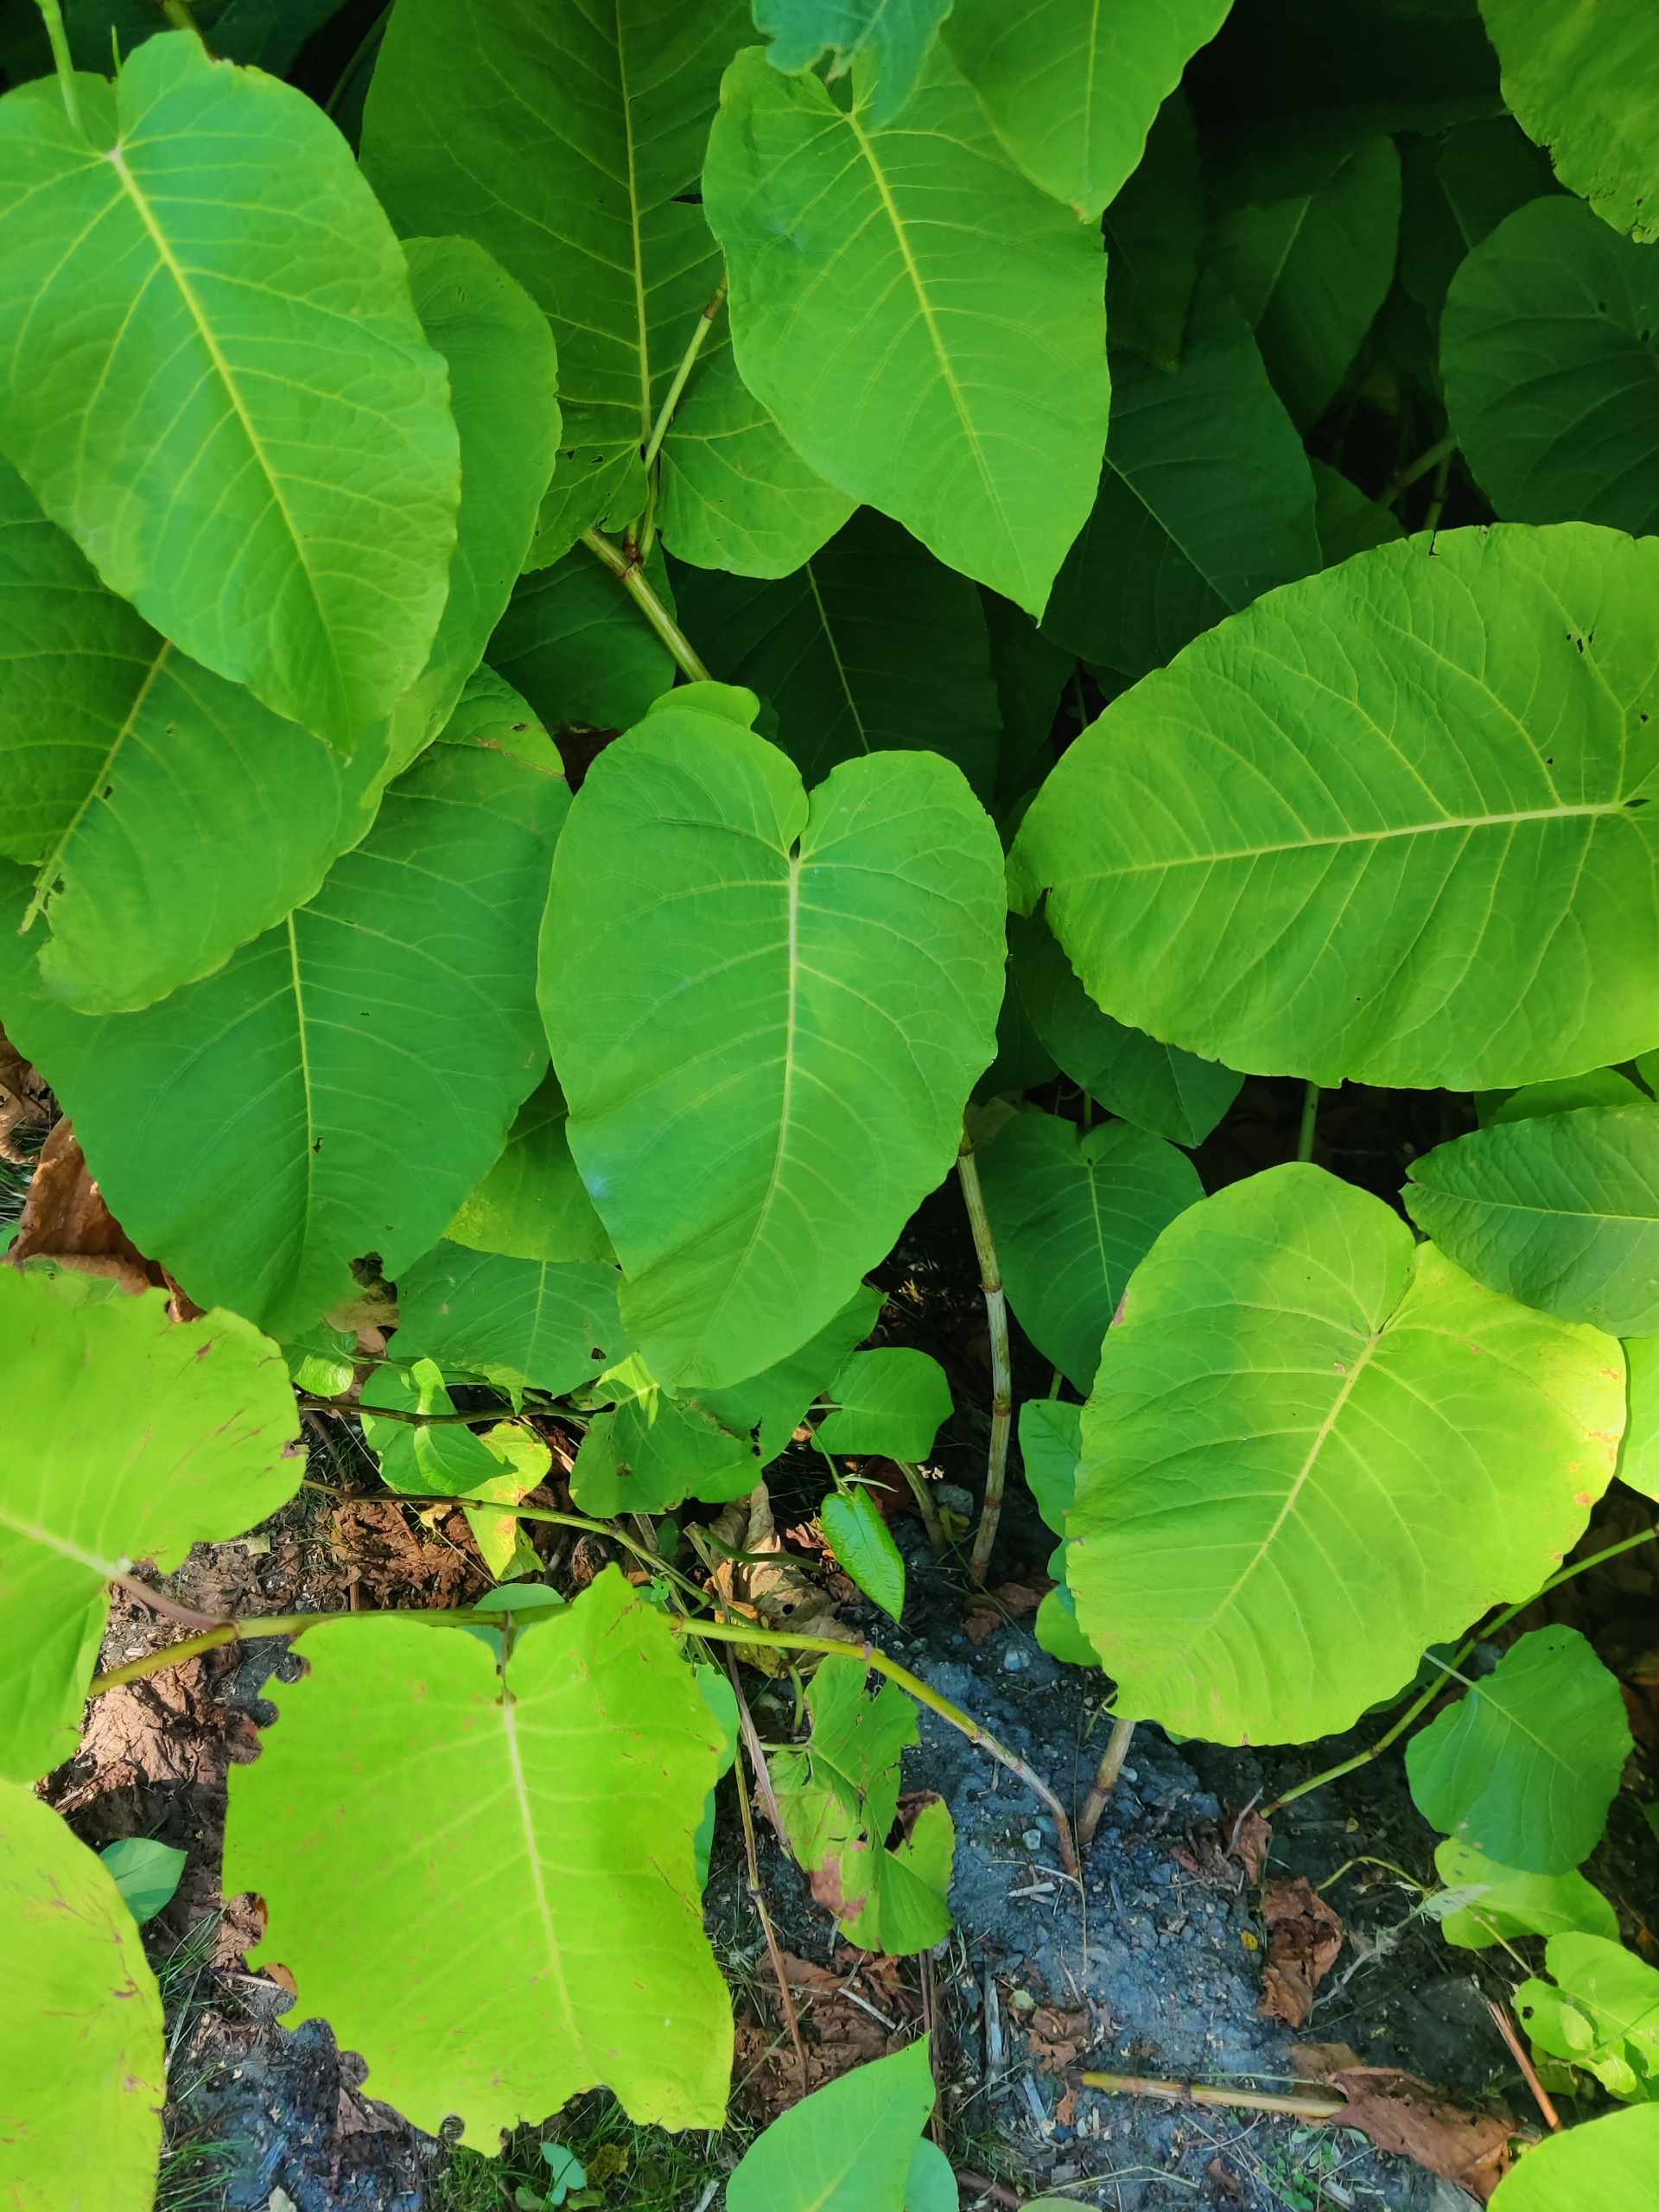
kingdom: Plantae
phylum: Tracheophyta
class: Magnoliopsida
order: Caryophyllales
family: Polygonaceae
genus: Reynoutria
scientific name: Reynoutria sachalinensis
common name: Kæmpe-pileurt
